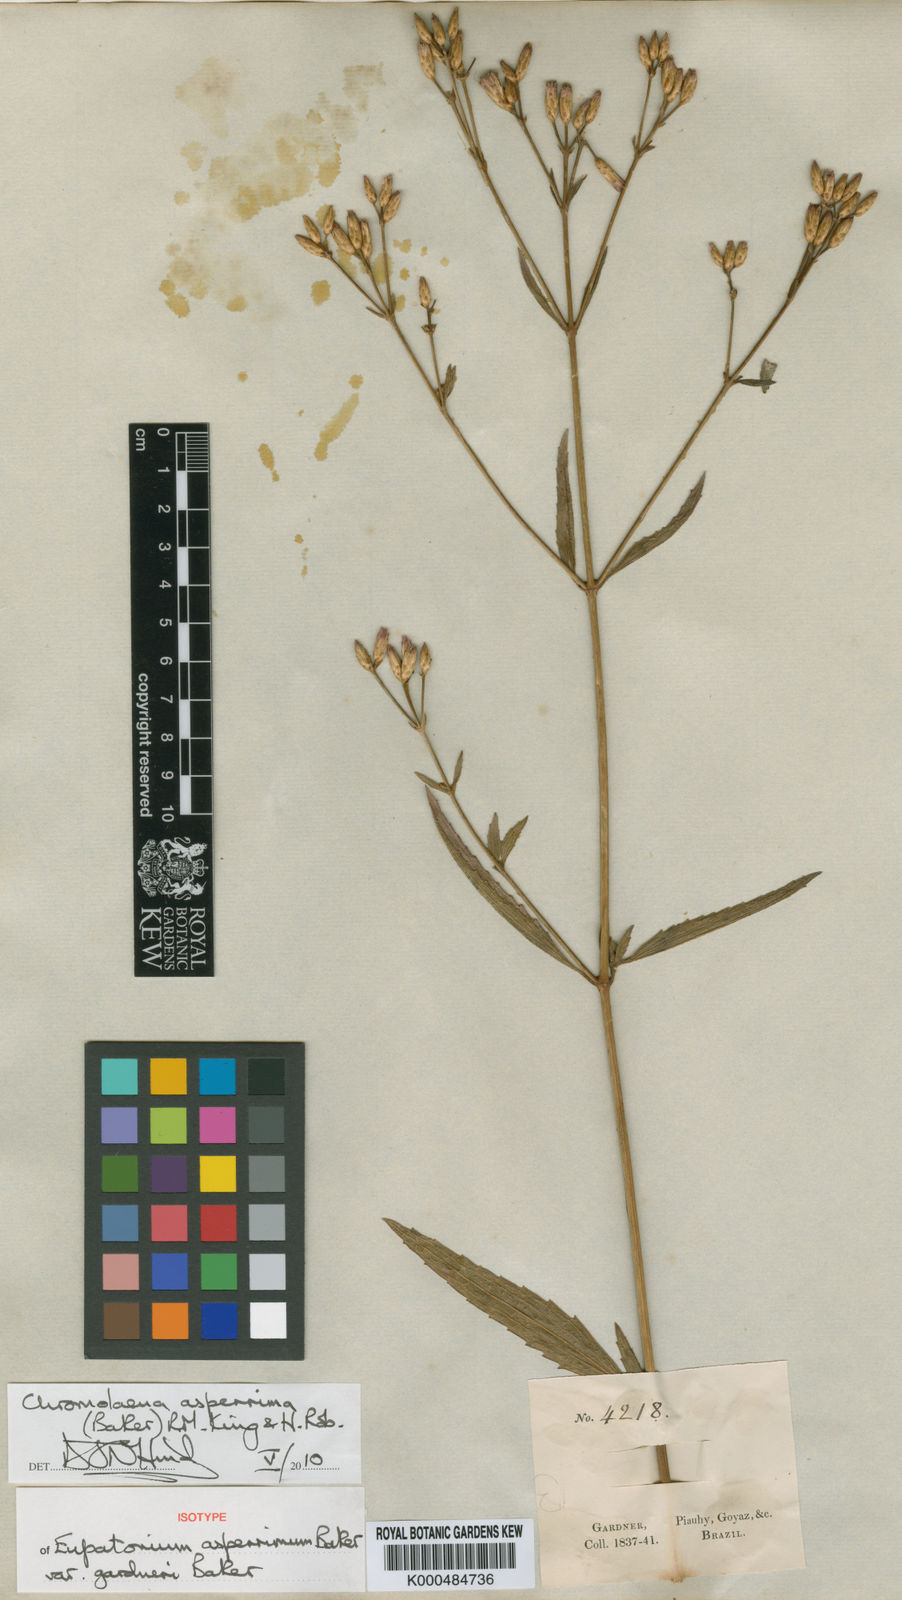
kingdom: Plantae
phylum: Tracheophyta
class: Magnoliopsida
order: Asterales
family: Asteraceae
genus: Chromolaena
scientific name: Chromolaena asperrima
